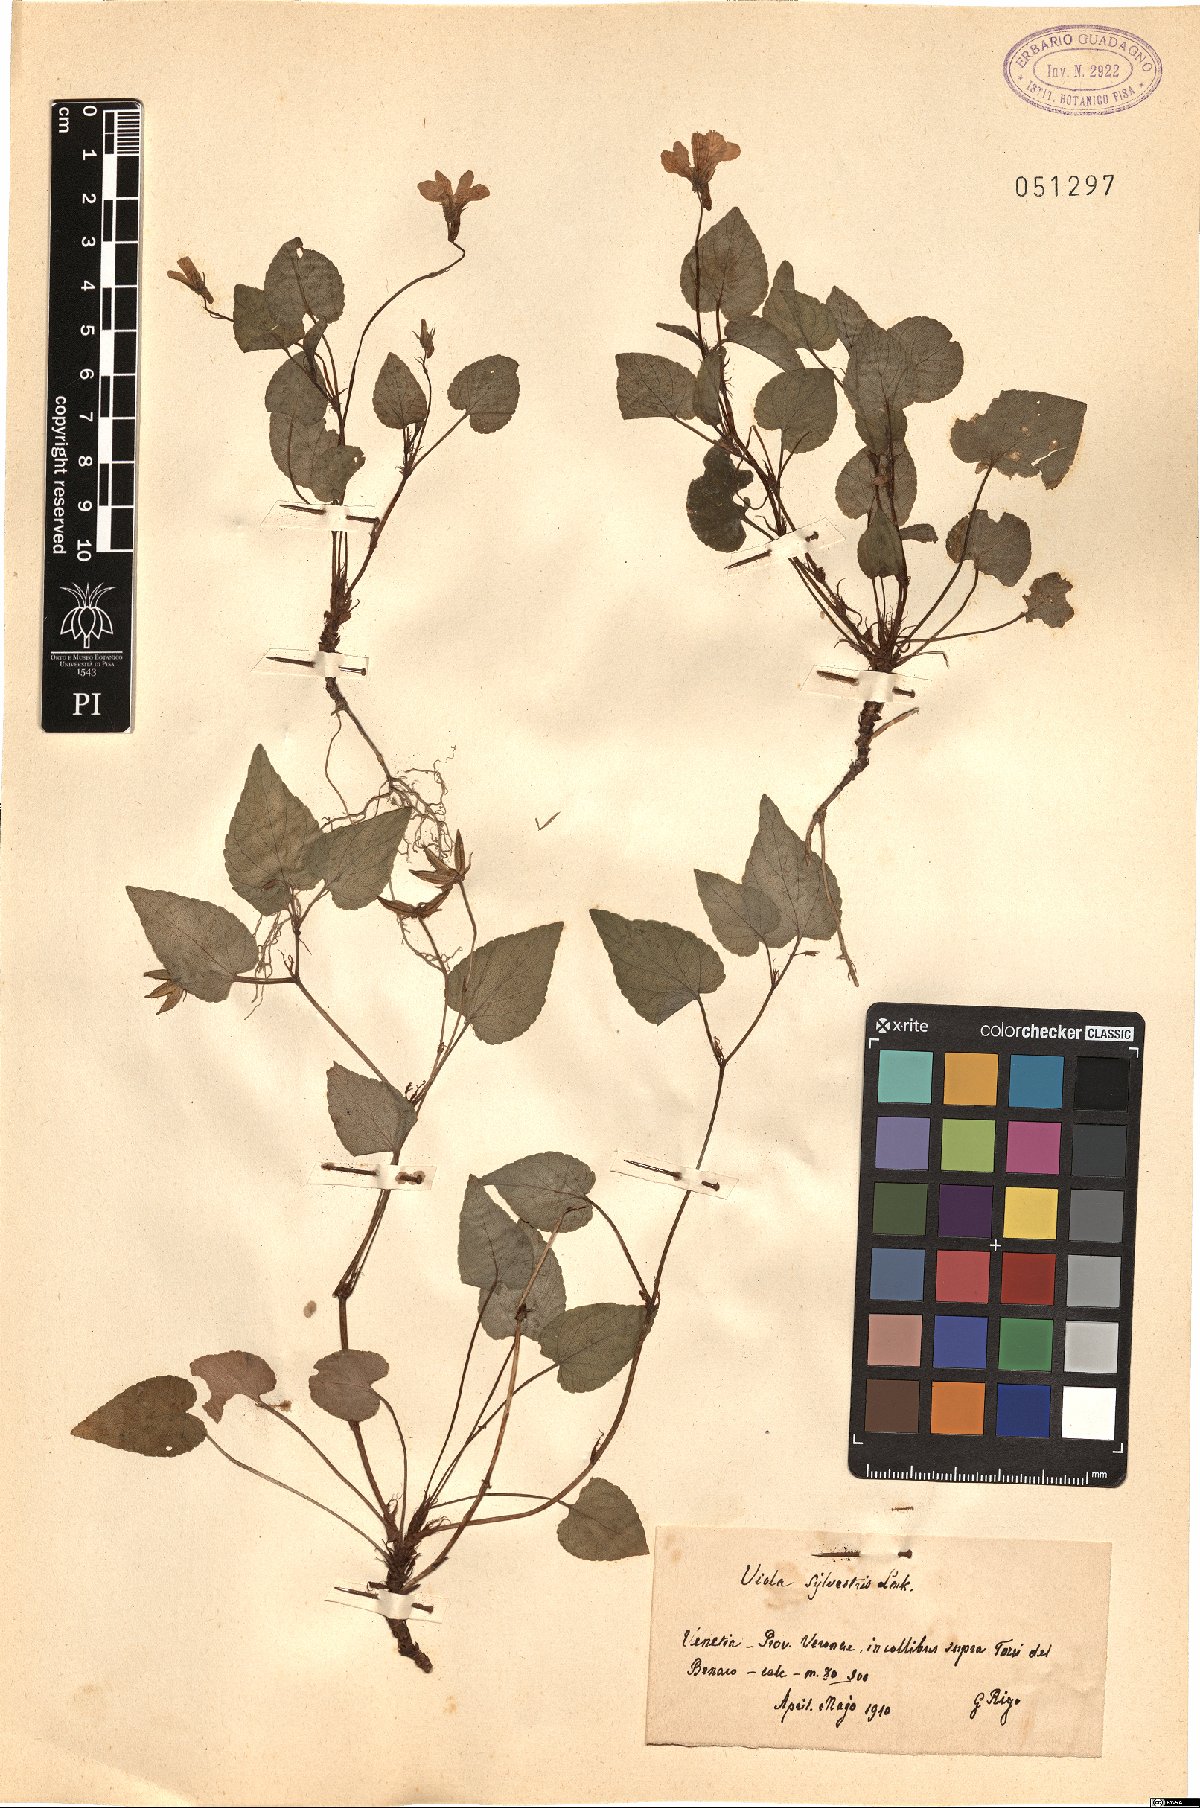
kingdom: Plantae
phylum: Tracheophyta
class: Magnoliopsida
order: Malpighiales
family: Violaceae
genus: Viola
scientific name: Viola canina
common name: Heath dog-violet
